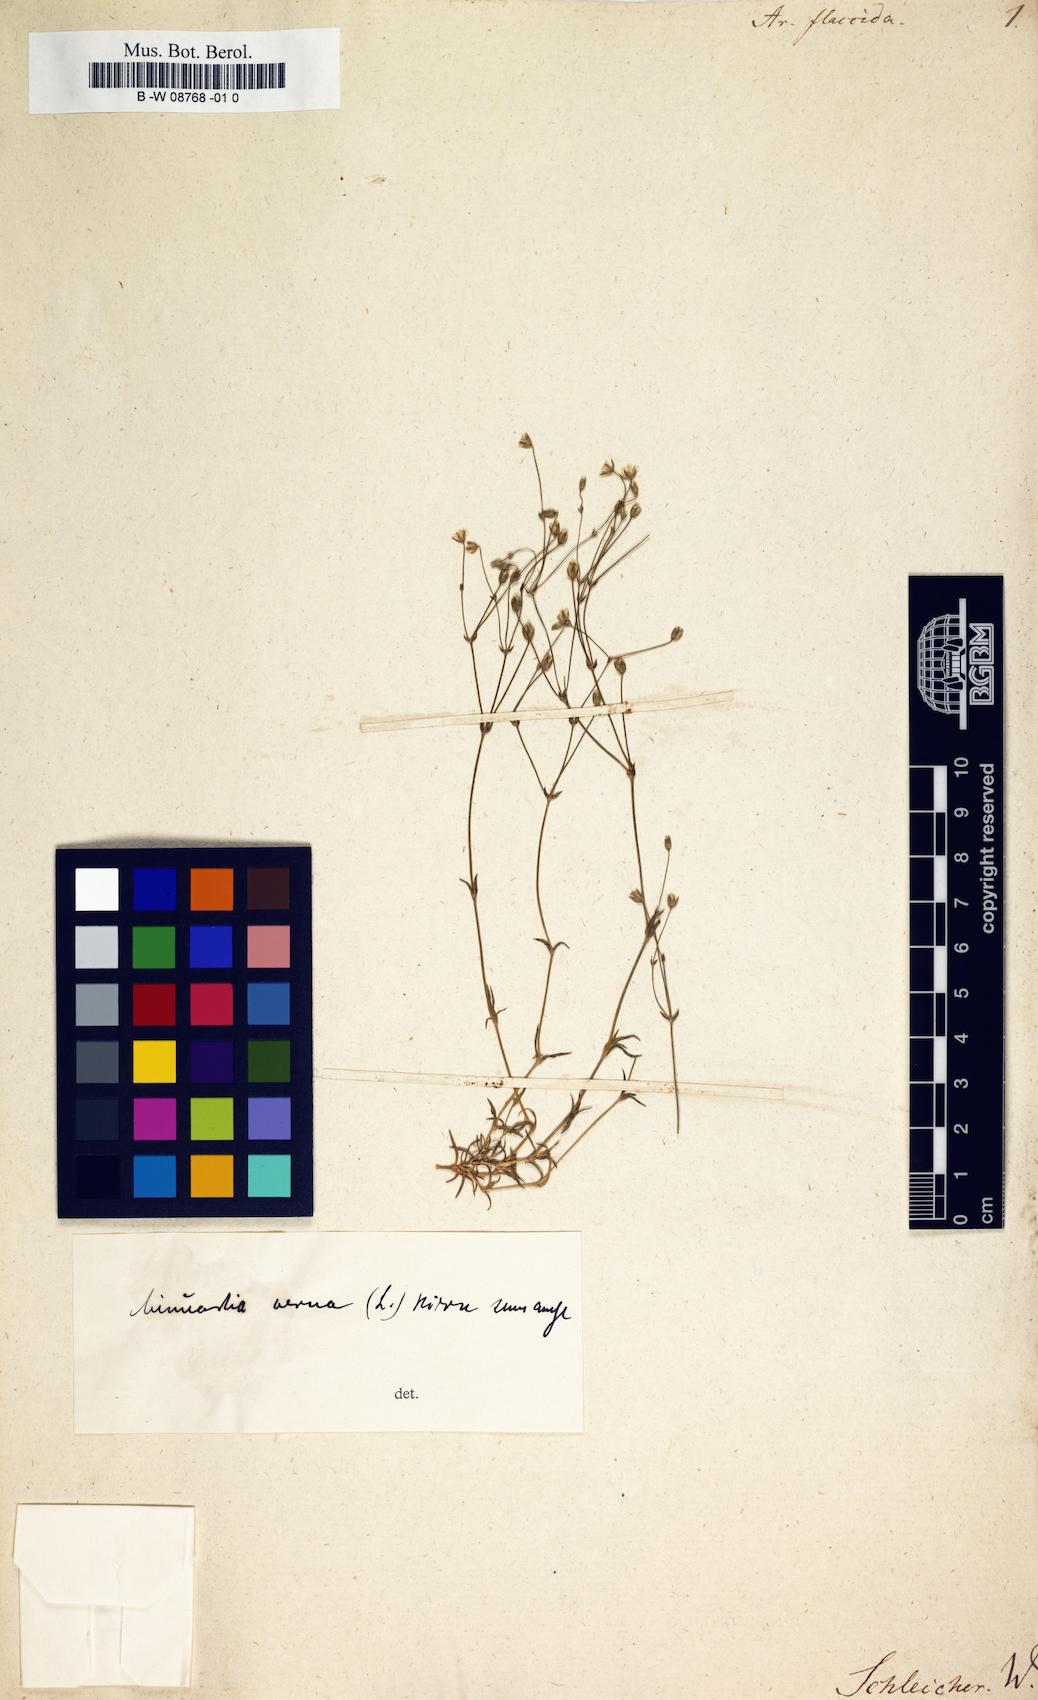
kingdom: Plantae
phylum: Tracheophyta
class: Magnoliopsida
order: Caryophyllales
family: Caryophyllaceae
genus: Facchinia
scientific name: Facchinia villarsii
